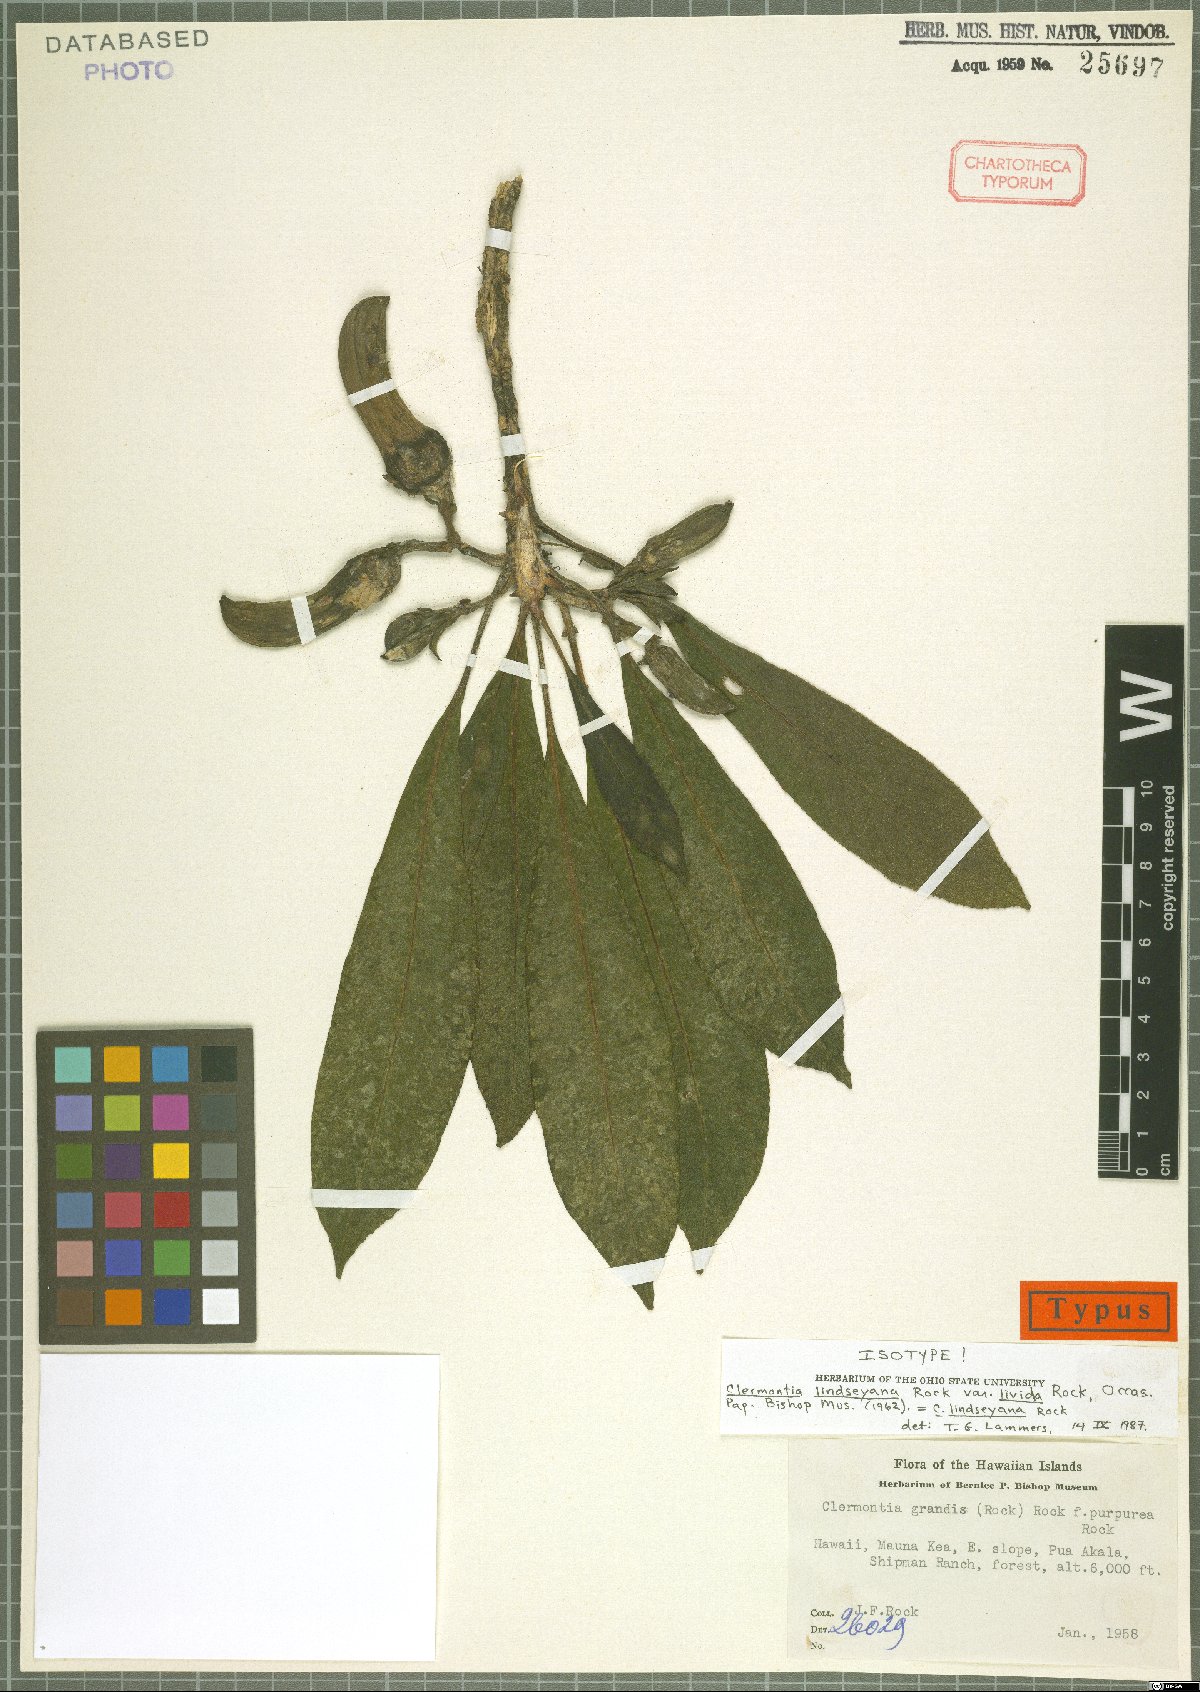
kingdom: Plantae
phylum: Tracheophyta
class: Magnoliopsida
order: Asterales
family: Campanulaceae
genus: Clermontia
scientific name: Clermontia lindseyana
